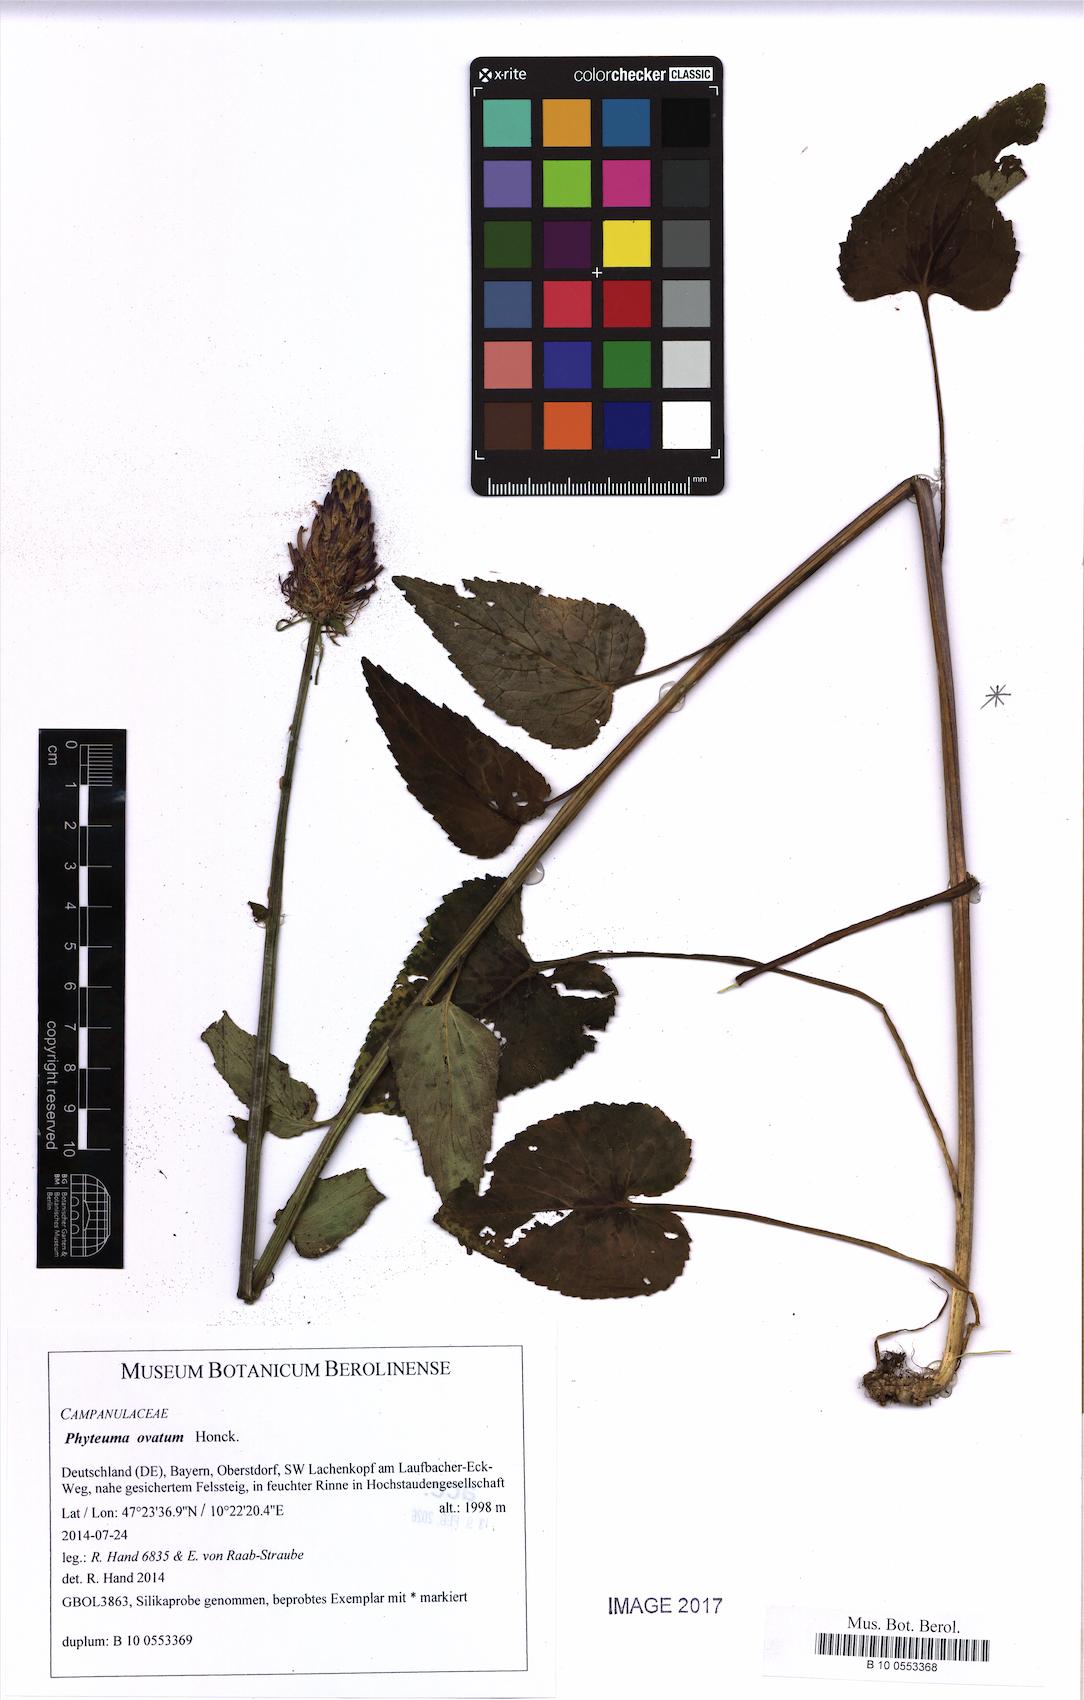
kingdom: Plantae
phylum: Tracheophyta
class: Magnoliopsida
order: Asterales
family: Campanulaceae
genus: Phyteuma
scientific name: Phyteuma ovatum
